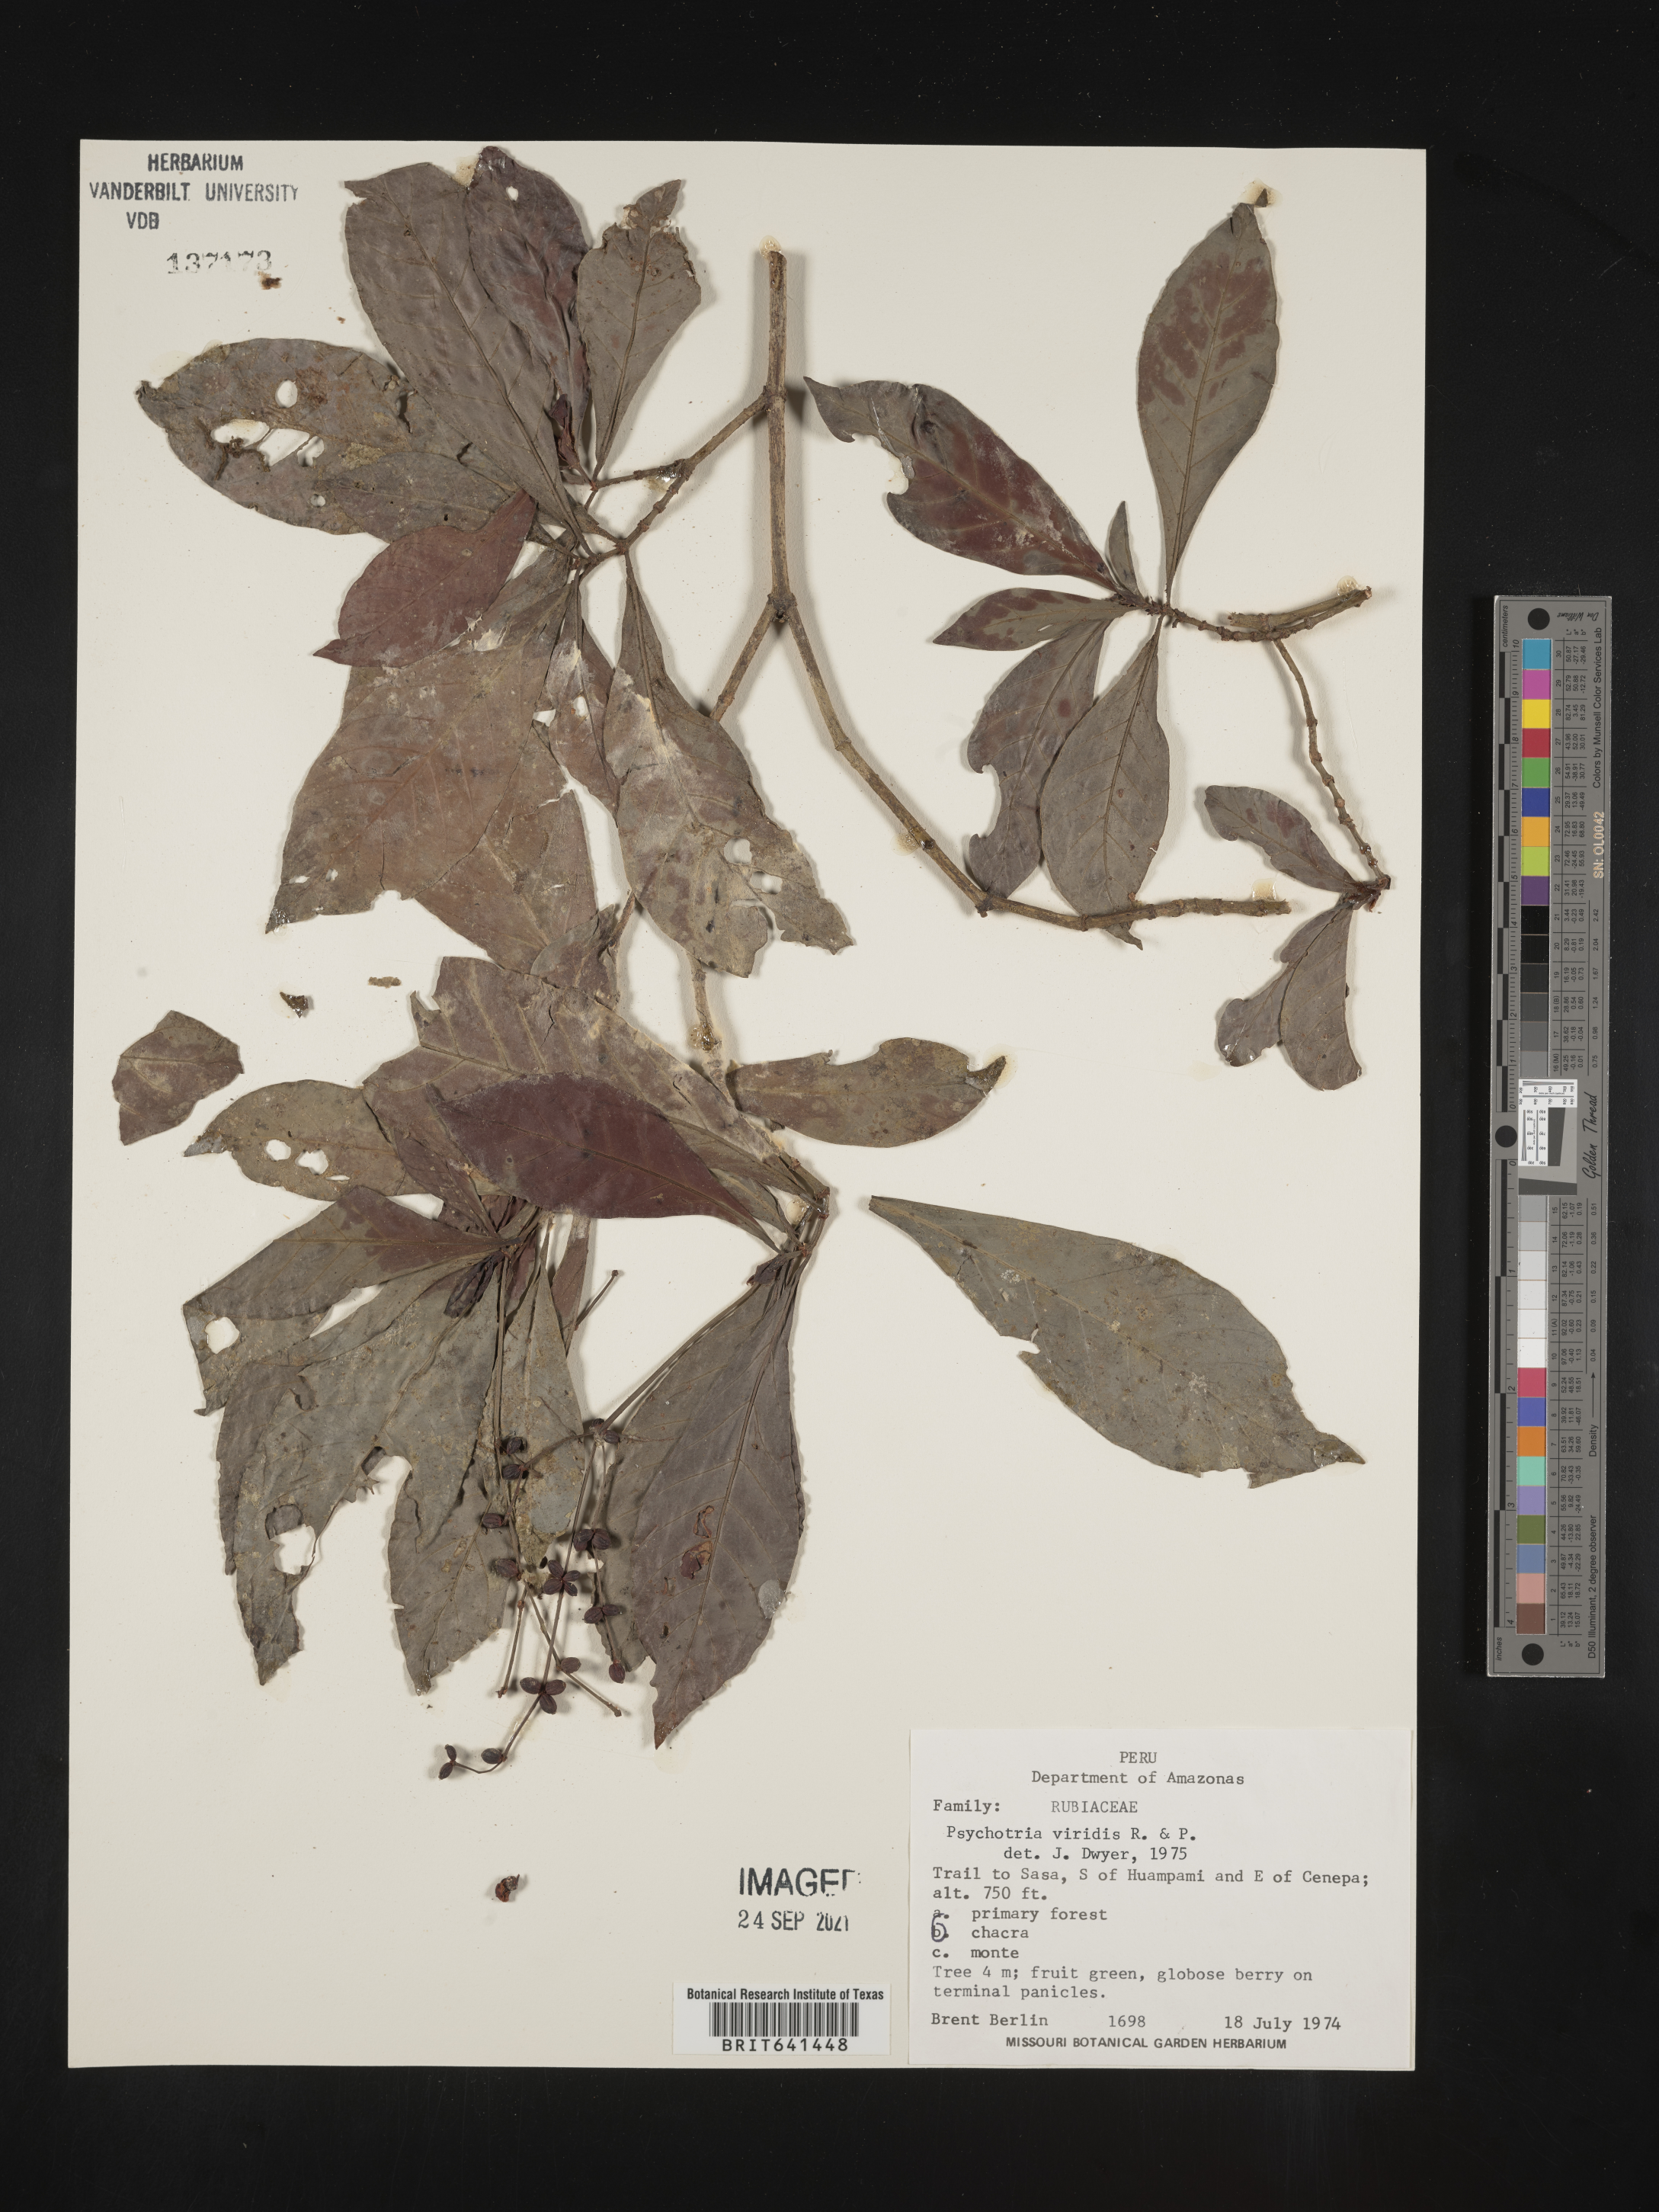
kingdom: Plantae
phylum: Tracheophyta
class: Magnoliopsida
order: Gentianales
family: Rubiaceae
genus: Psychotria
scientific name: Psychotria
